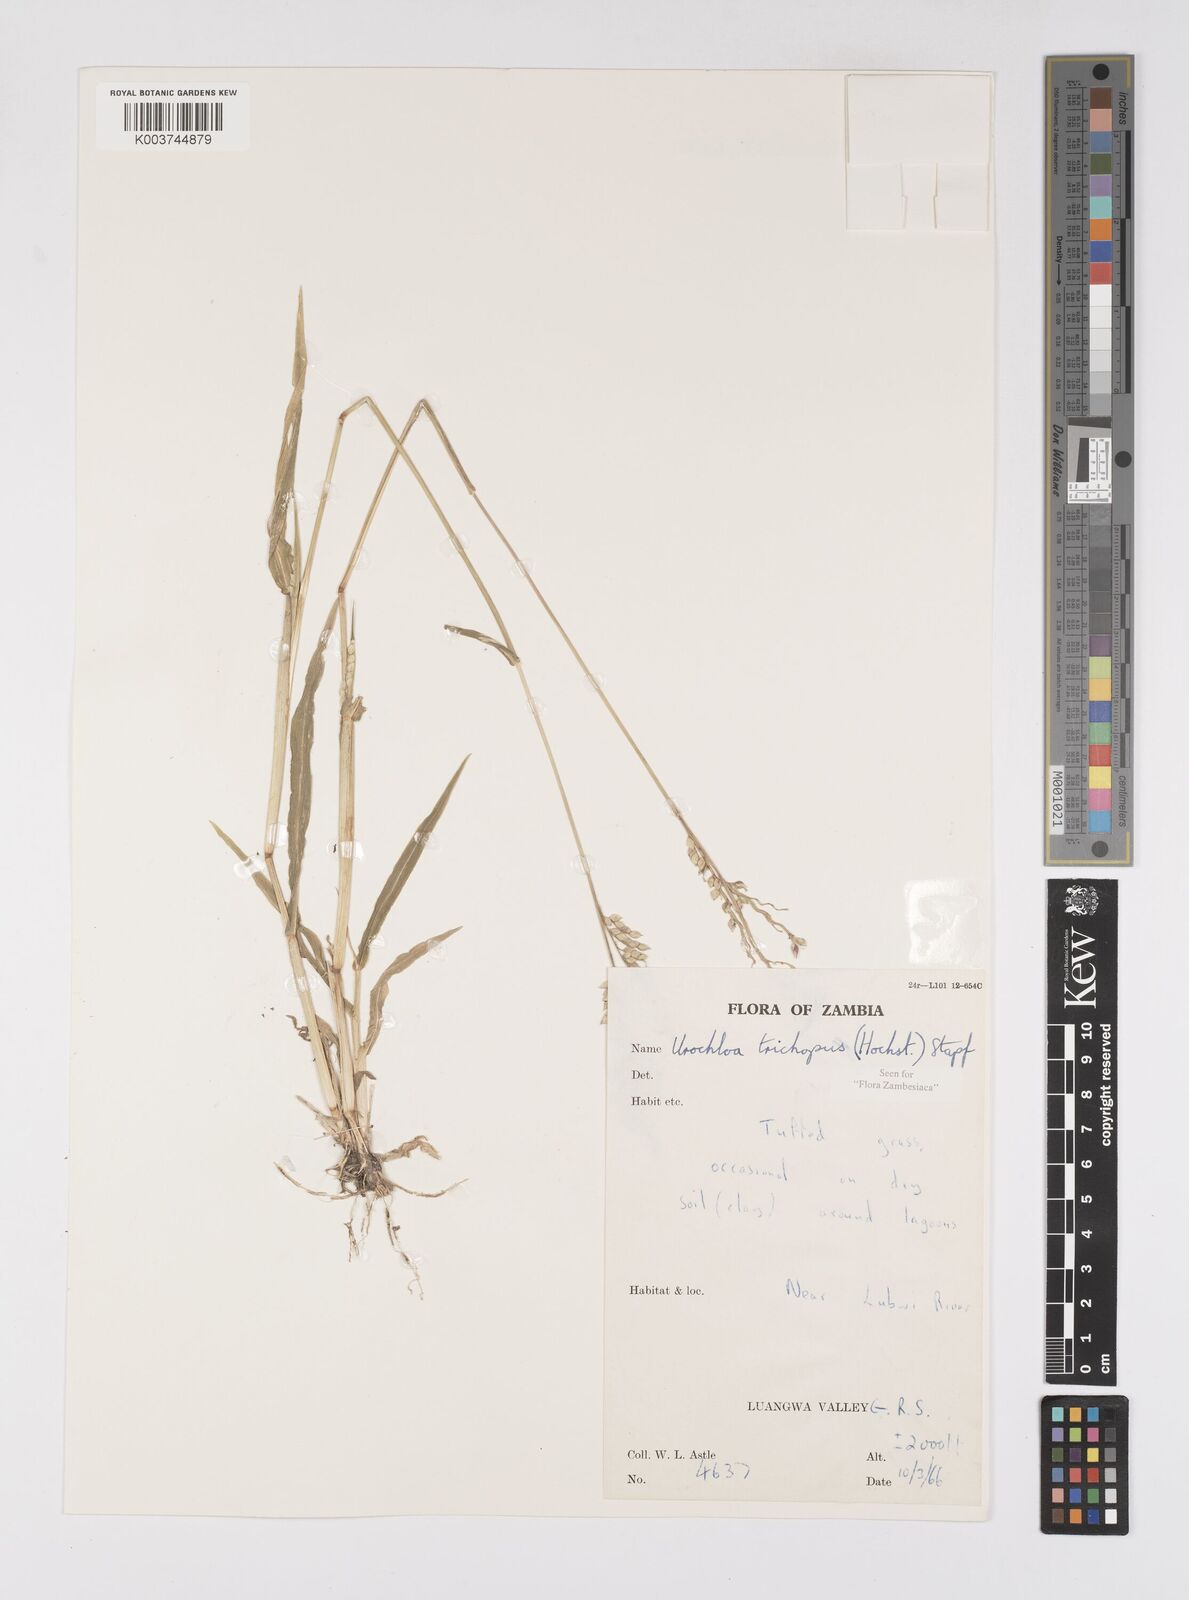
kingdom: Plantae
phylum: Tracheophyta
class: Liliopsida
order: Poales
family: Poaceae
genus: Urochloa
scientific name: Urochloa trichopus
